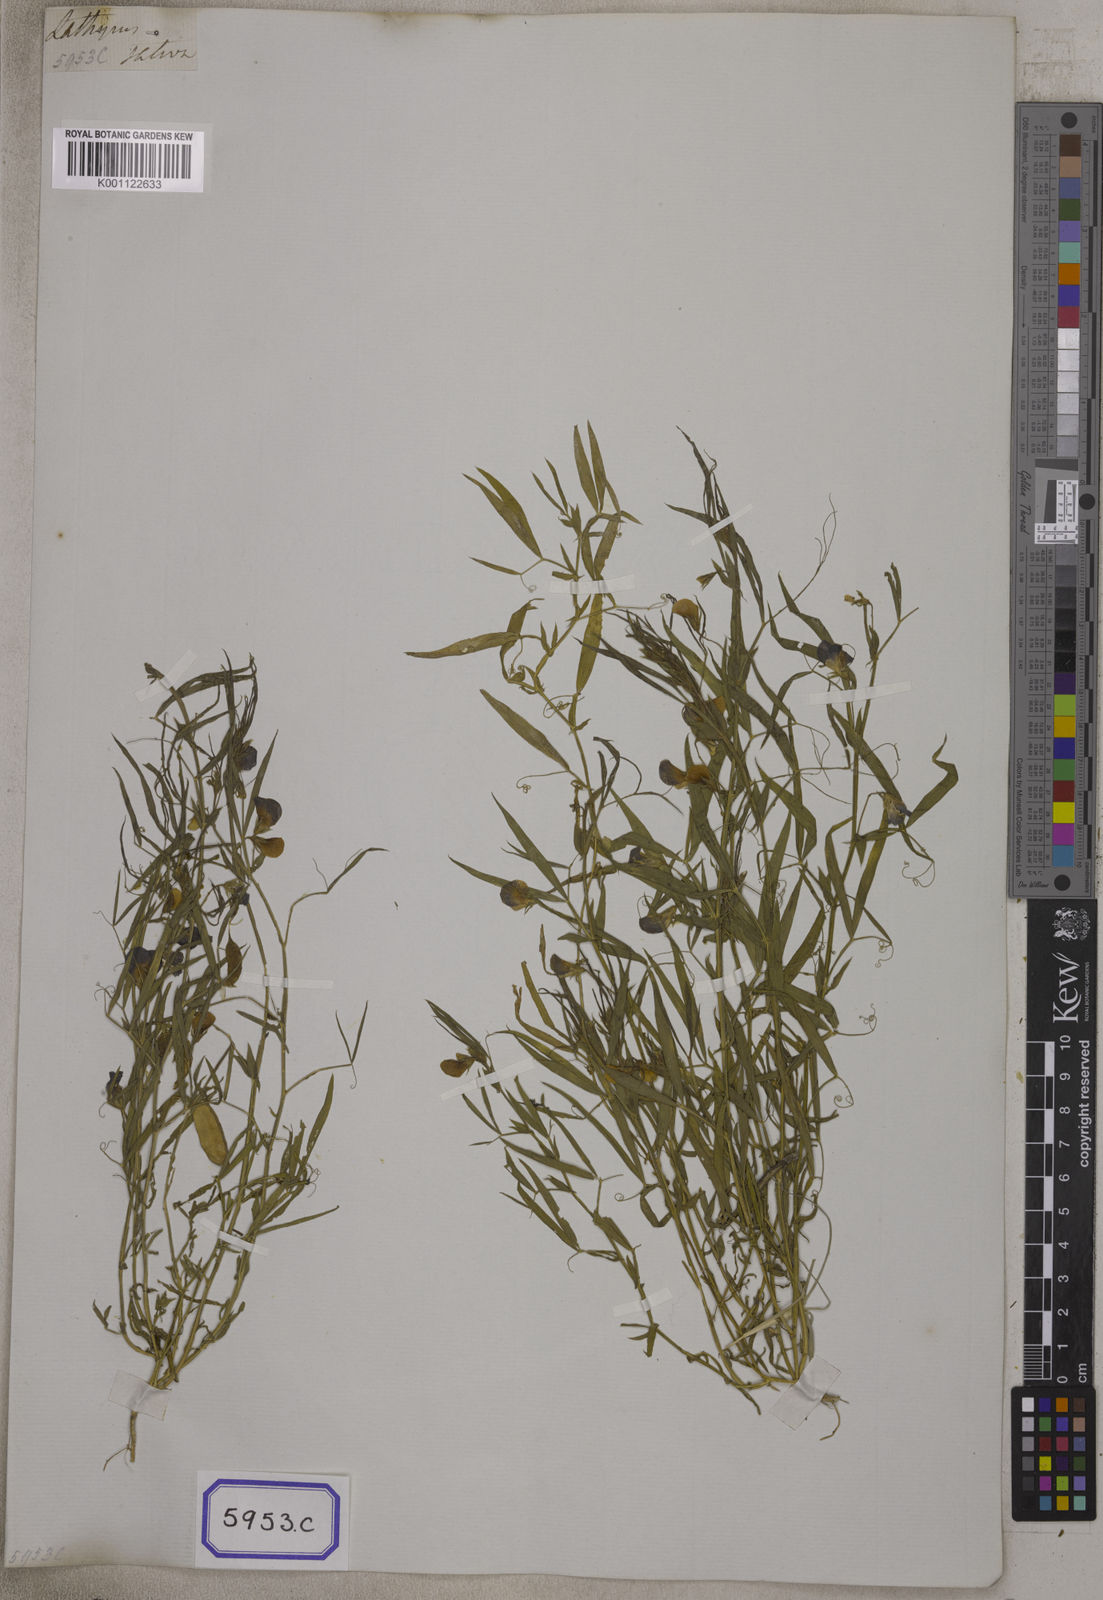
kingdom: Plantae
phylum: Tracheophyta
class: Magnoliopsida
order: Fabales
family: Fabaceae
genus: Lathyrus
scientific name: Lathyrus sativus
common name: Indian pea
